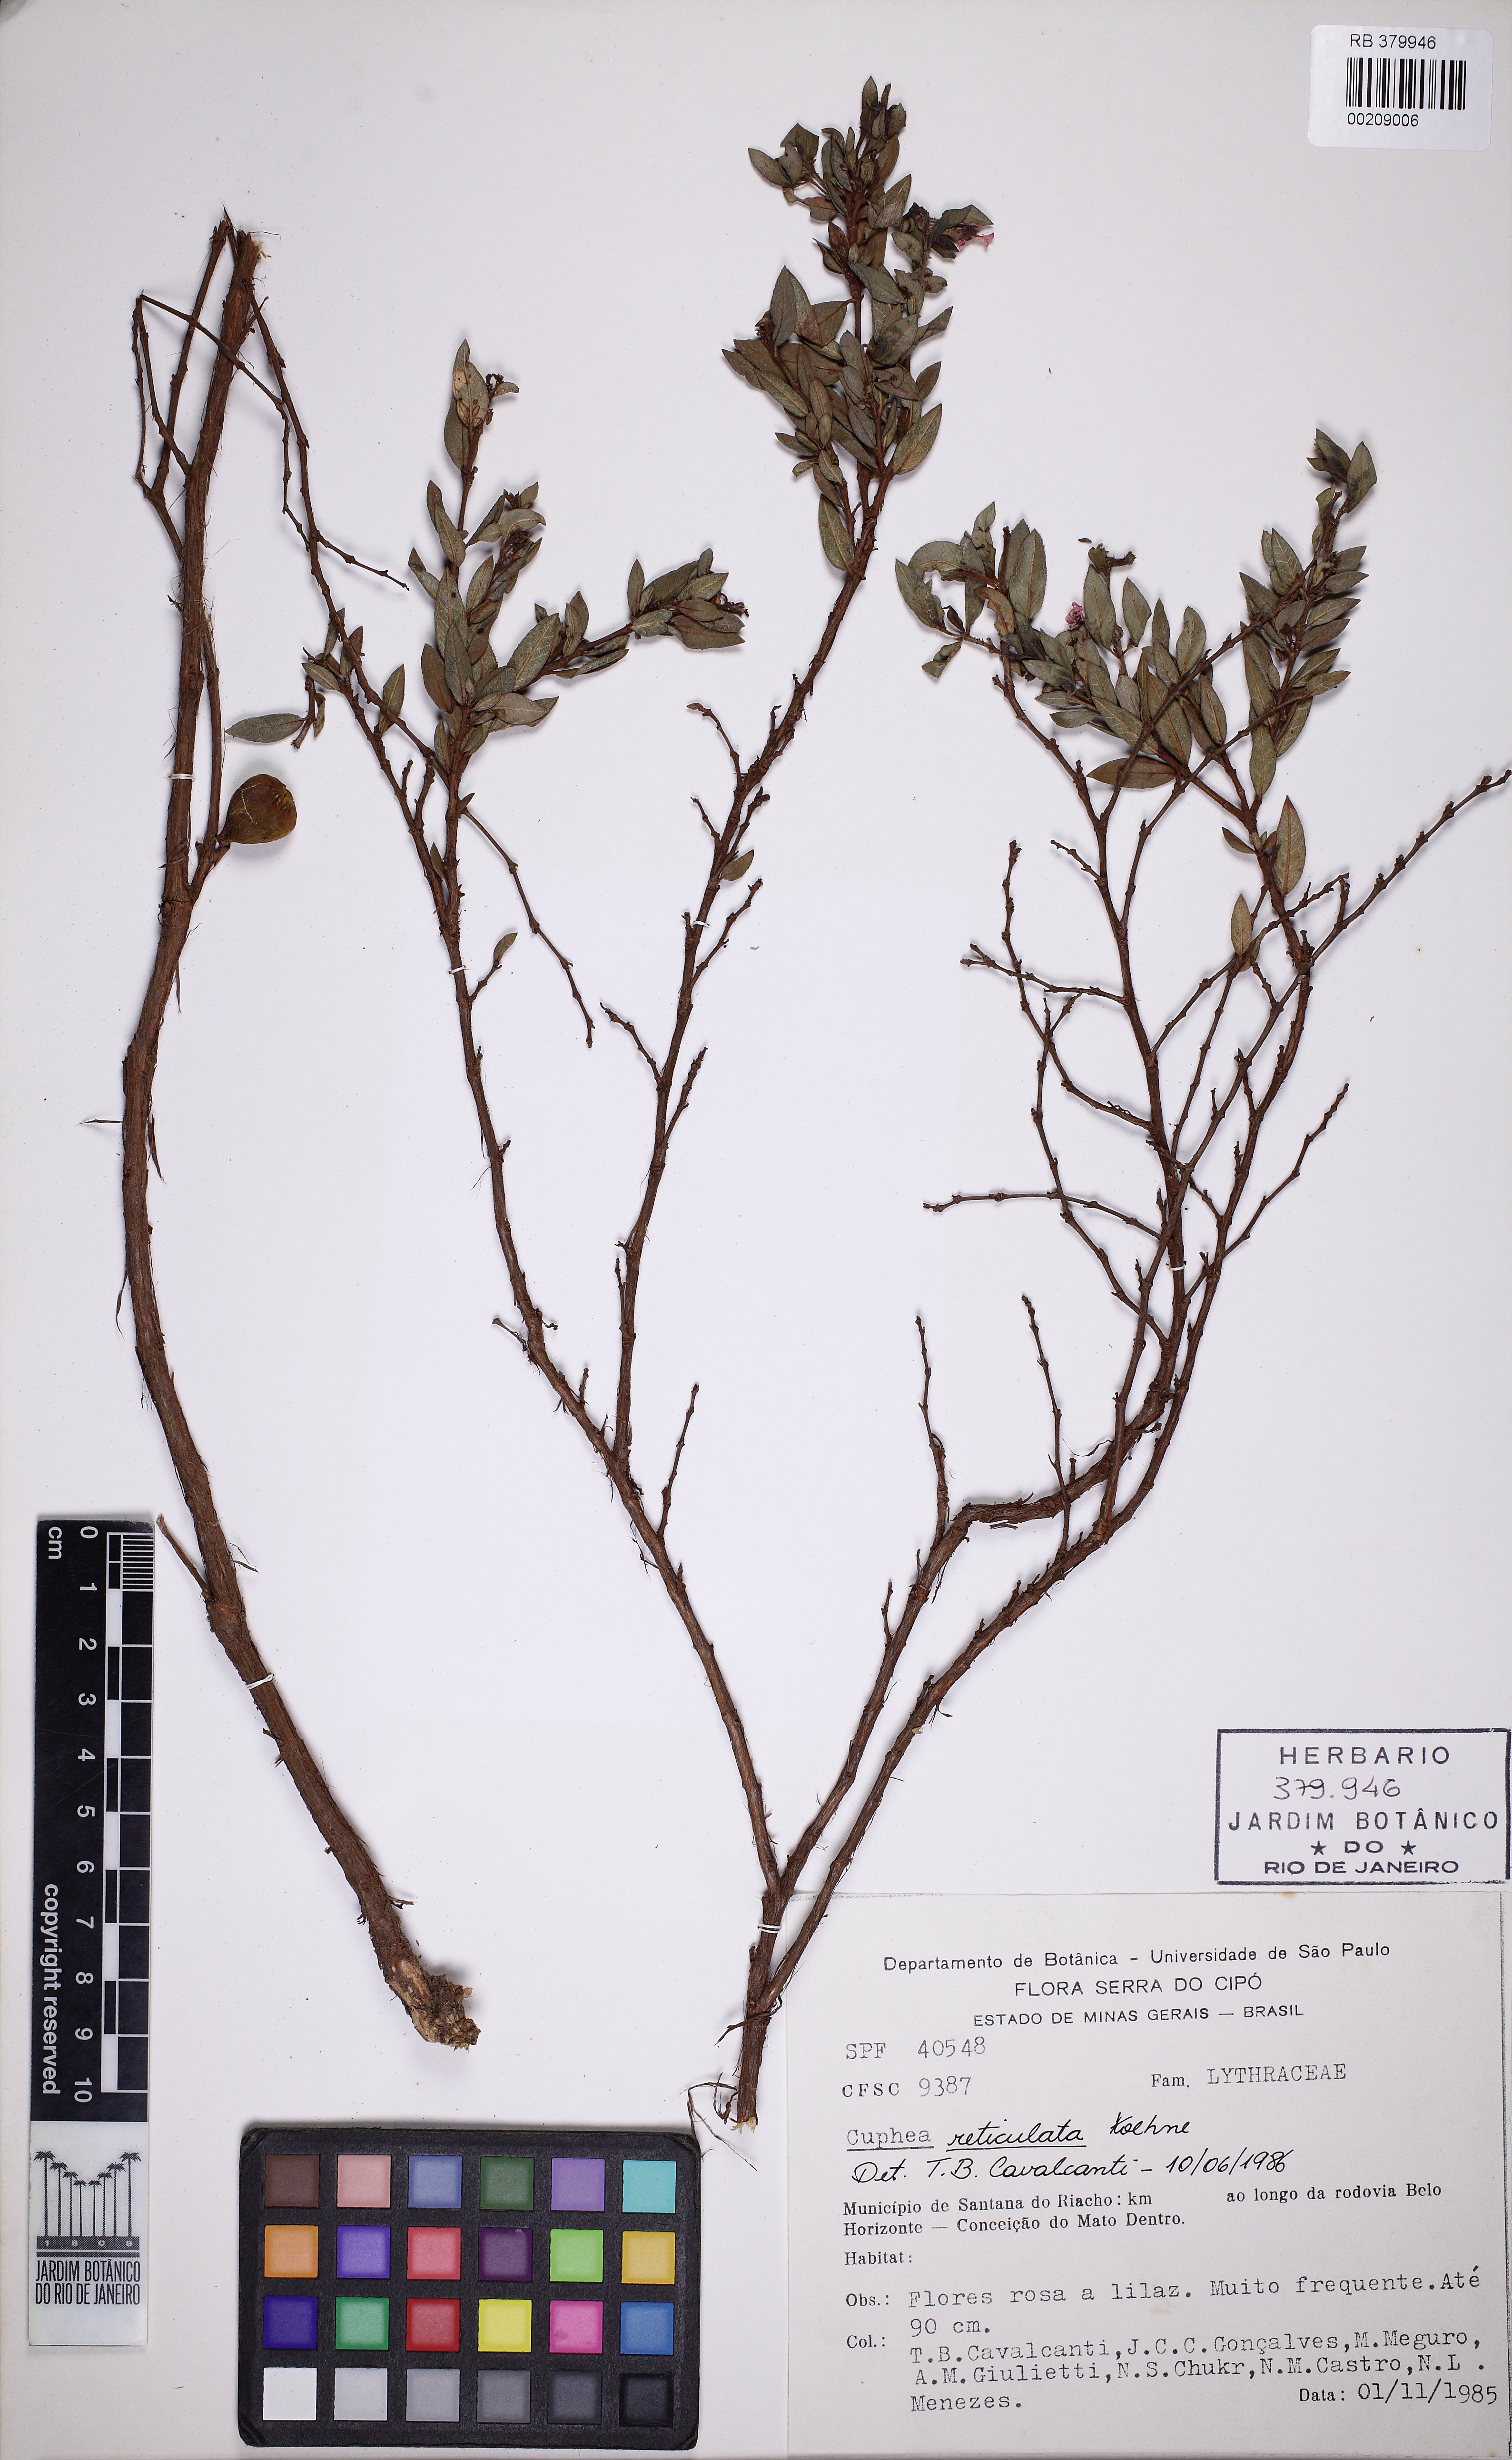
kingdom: Plantae
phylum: Tracheophyta
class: Magnoliopsida
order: Myrtales
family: Lythraceae
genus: Cuphea
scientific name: Cuphea pseudovaccinium
